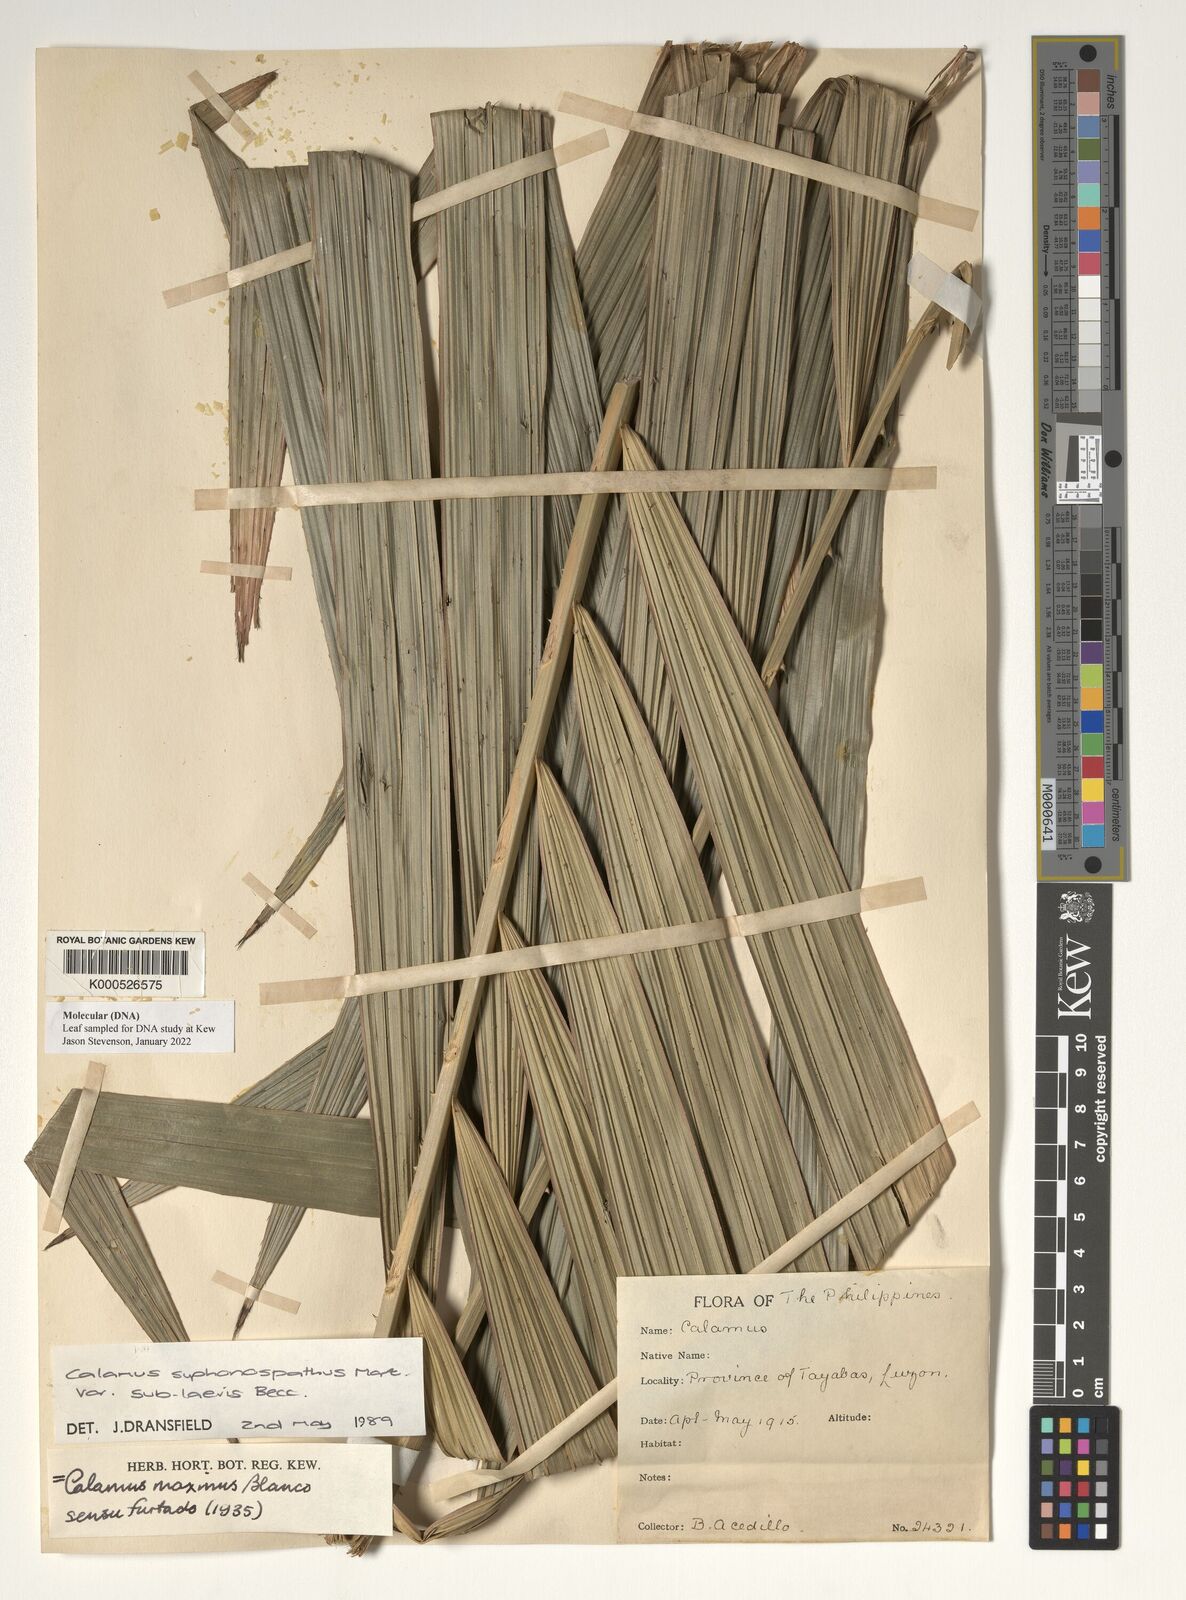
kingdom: Plantae
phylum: Tracheophyta
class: Liliopsida
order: Arecales
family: Arecaceae
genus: Calamus
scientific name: Calamus siphonospathus
